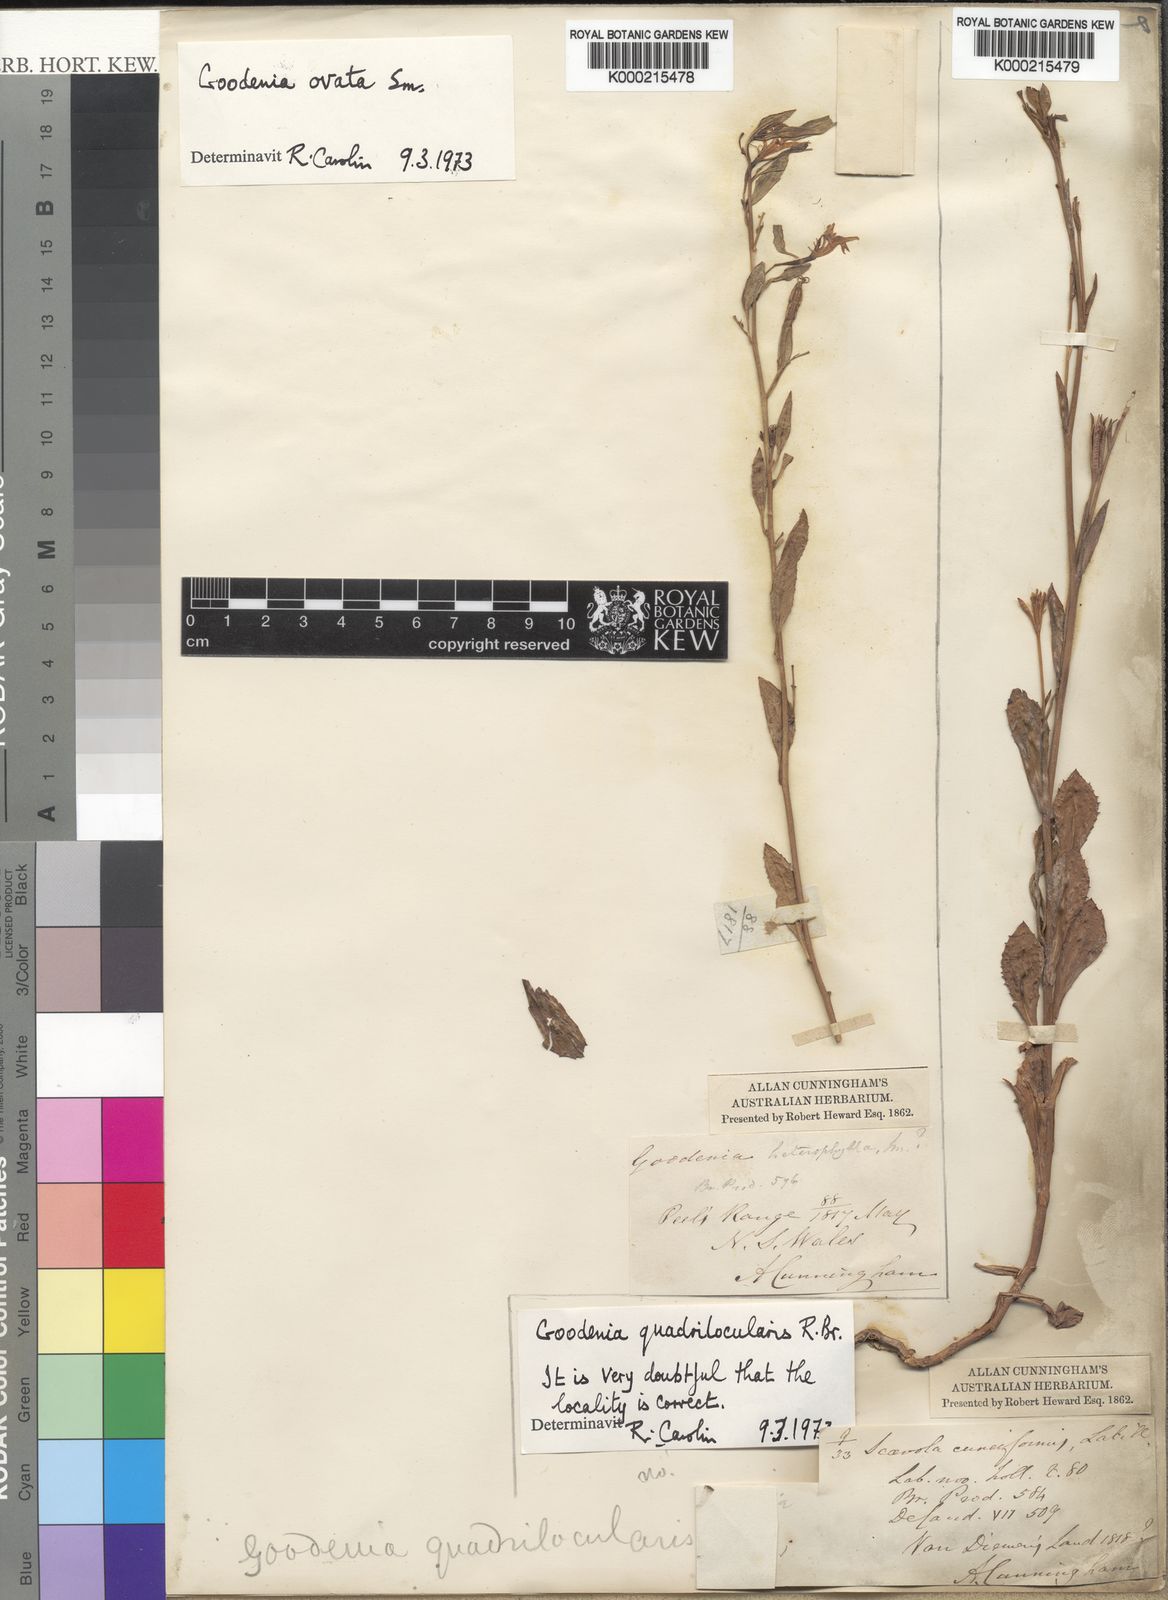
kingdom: Plantae
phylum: Tracheophyta
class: Magnoliopsida
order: Asterales
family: Goodeniaceae
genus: Goodenia
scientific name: Goodenia quadrilocularis
